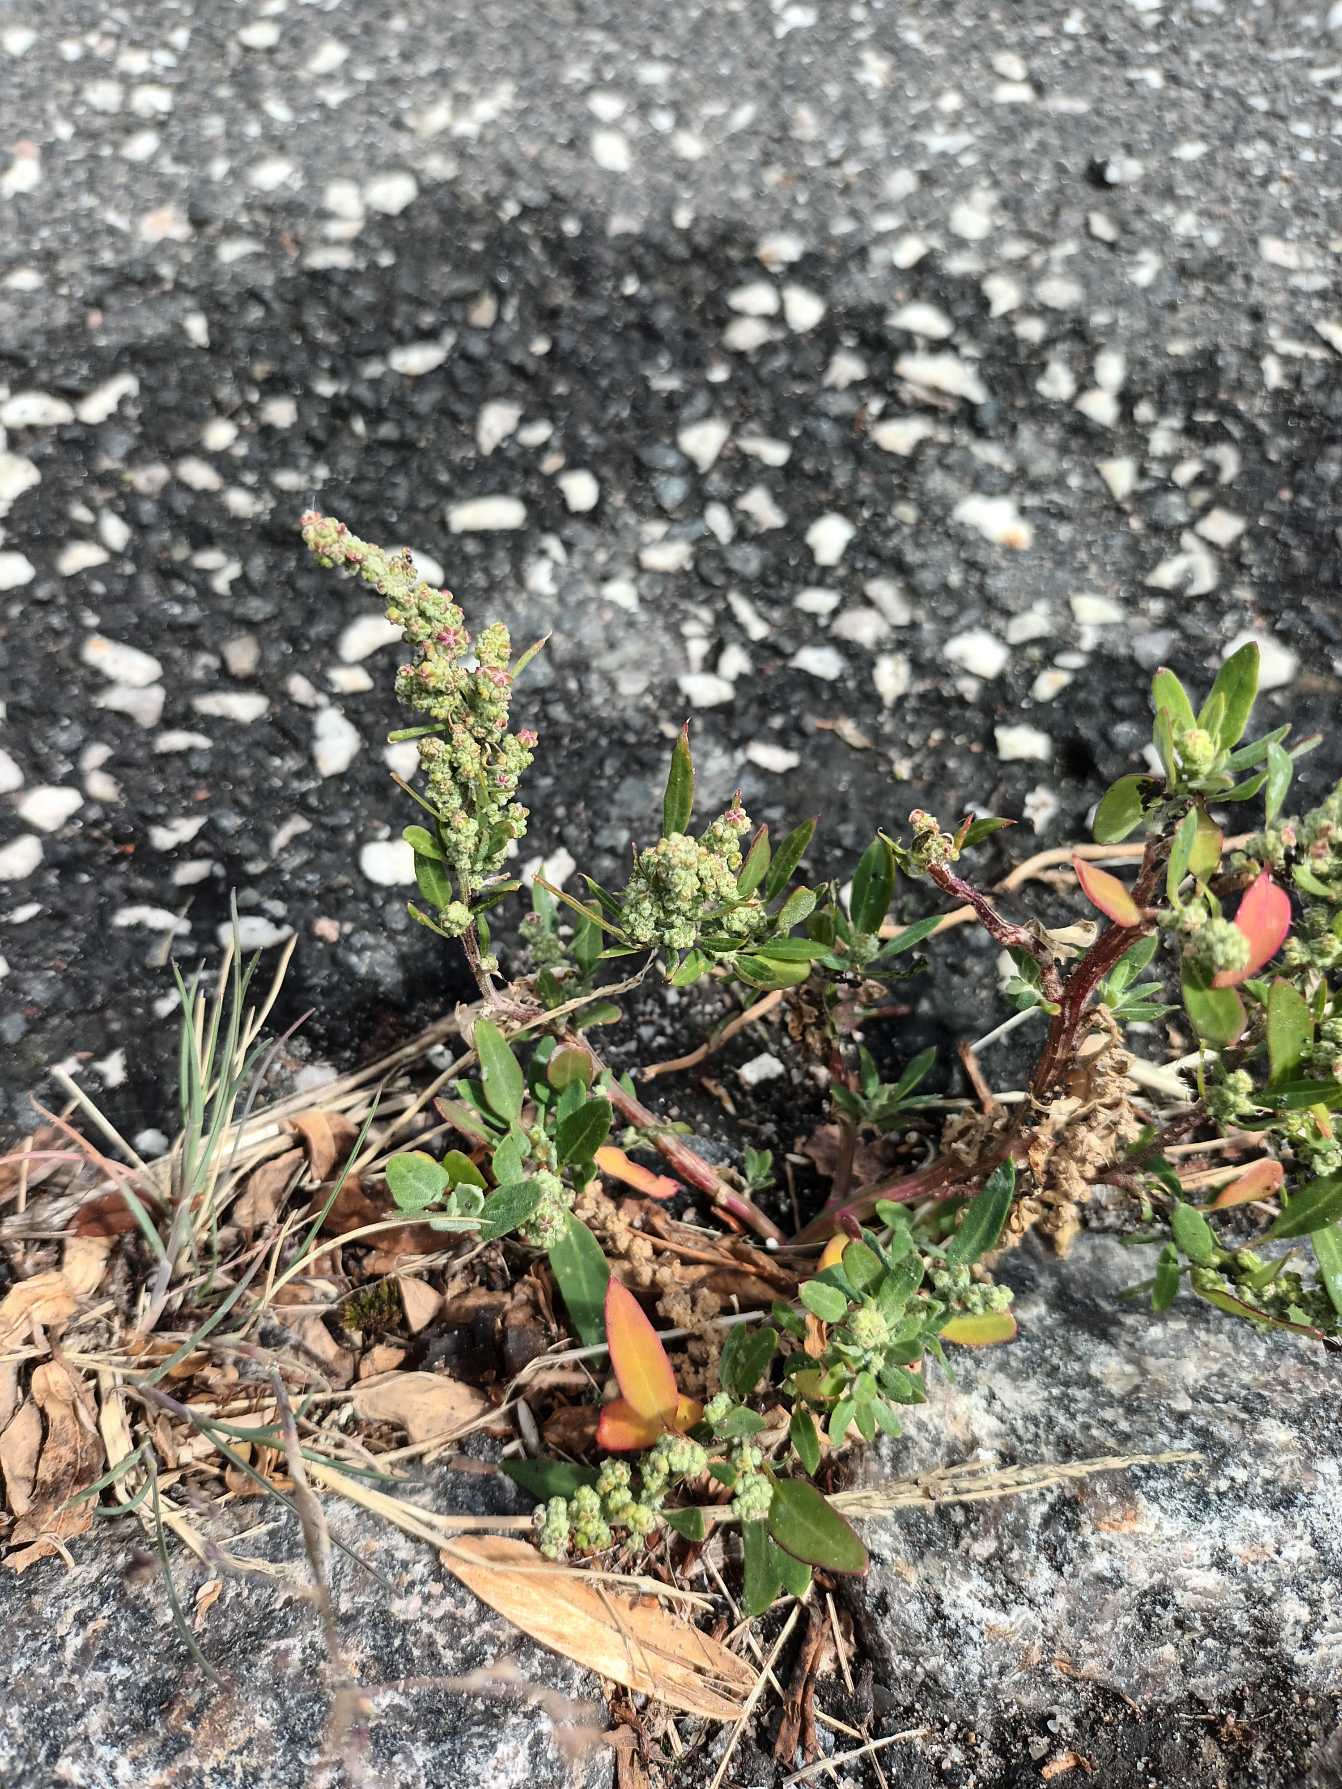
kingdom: Plantae
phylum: Tracheophyta
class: Magnoliopsida
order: Caryophyllales
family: Amaranthaceae
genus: Chenopodium
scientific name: Chenopodium album
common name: Hvidmelet gåsefod
